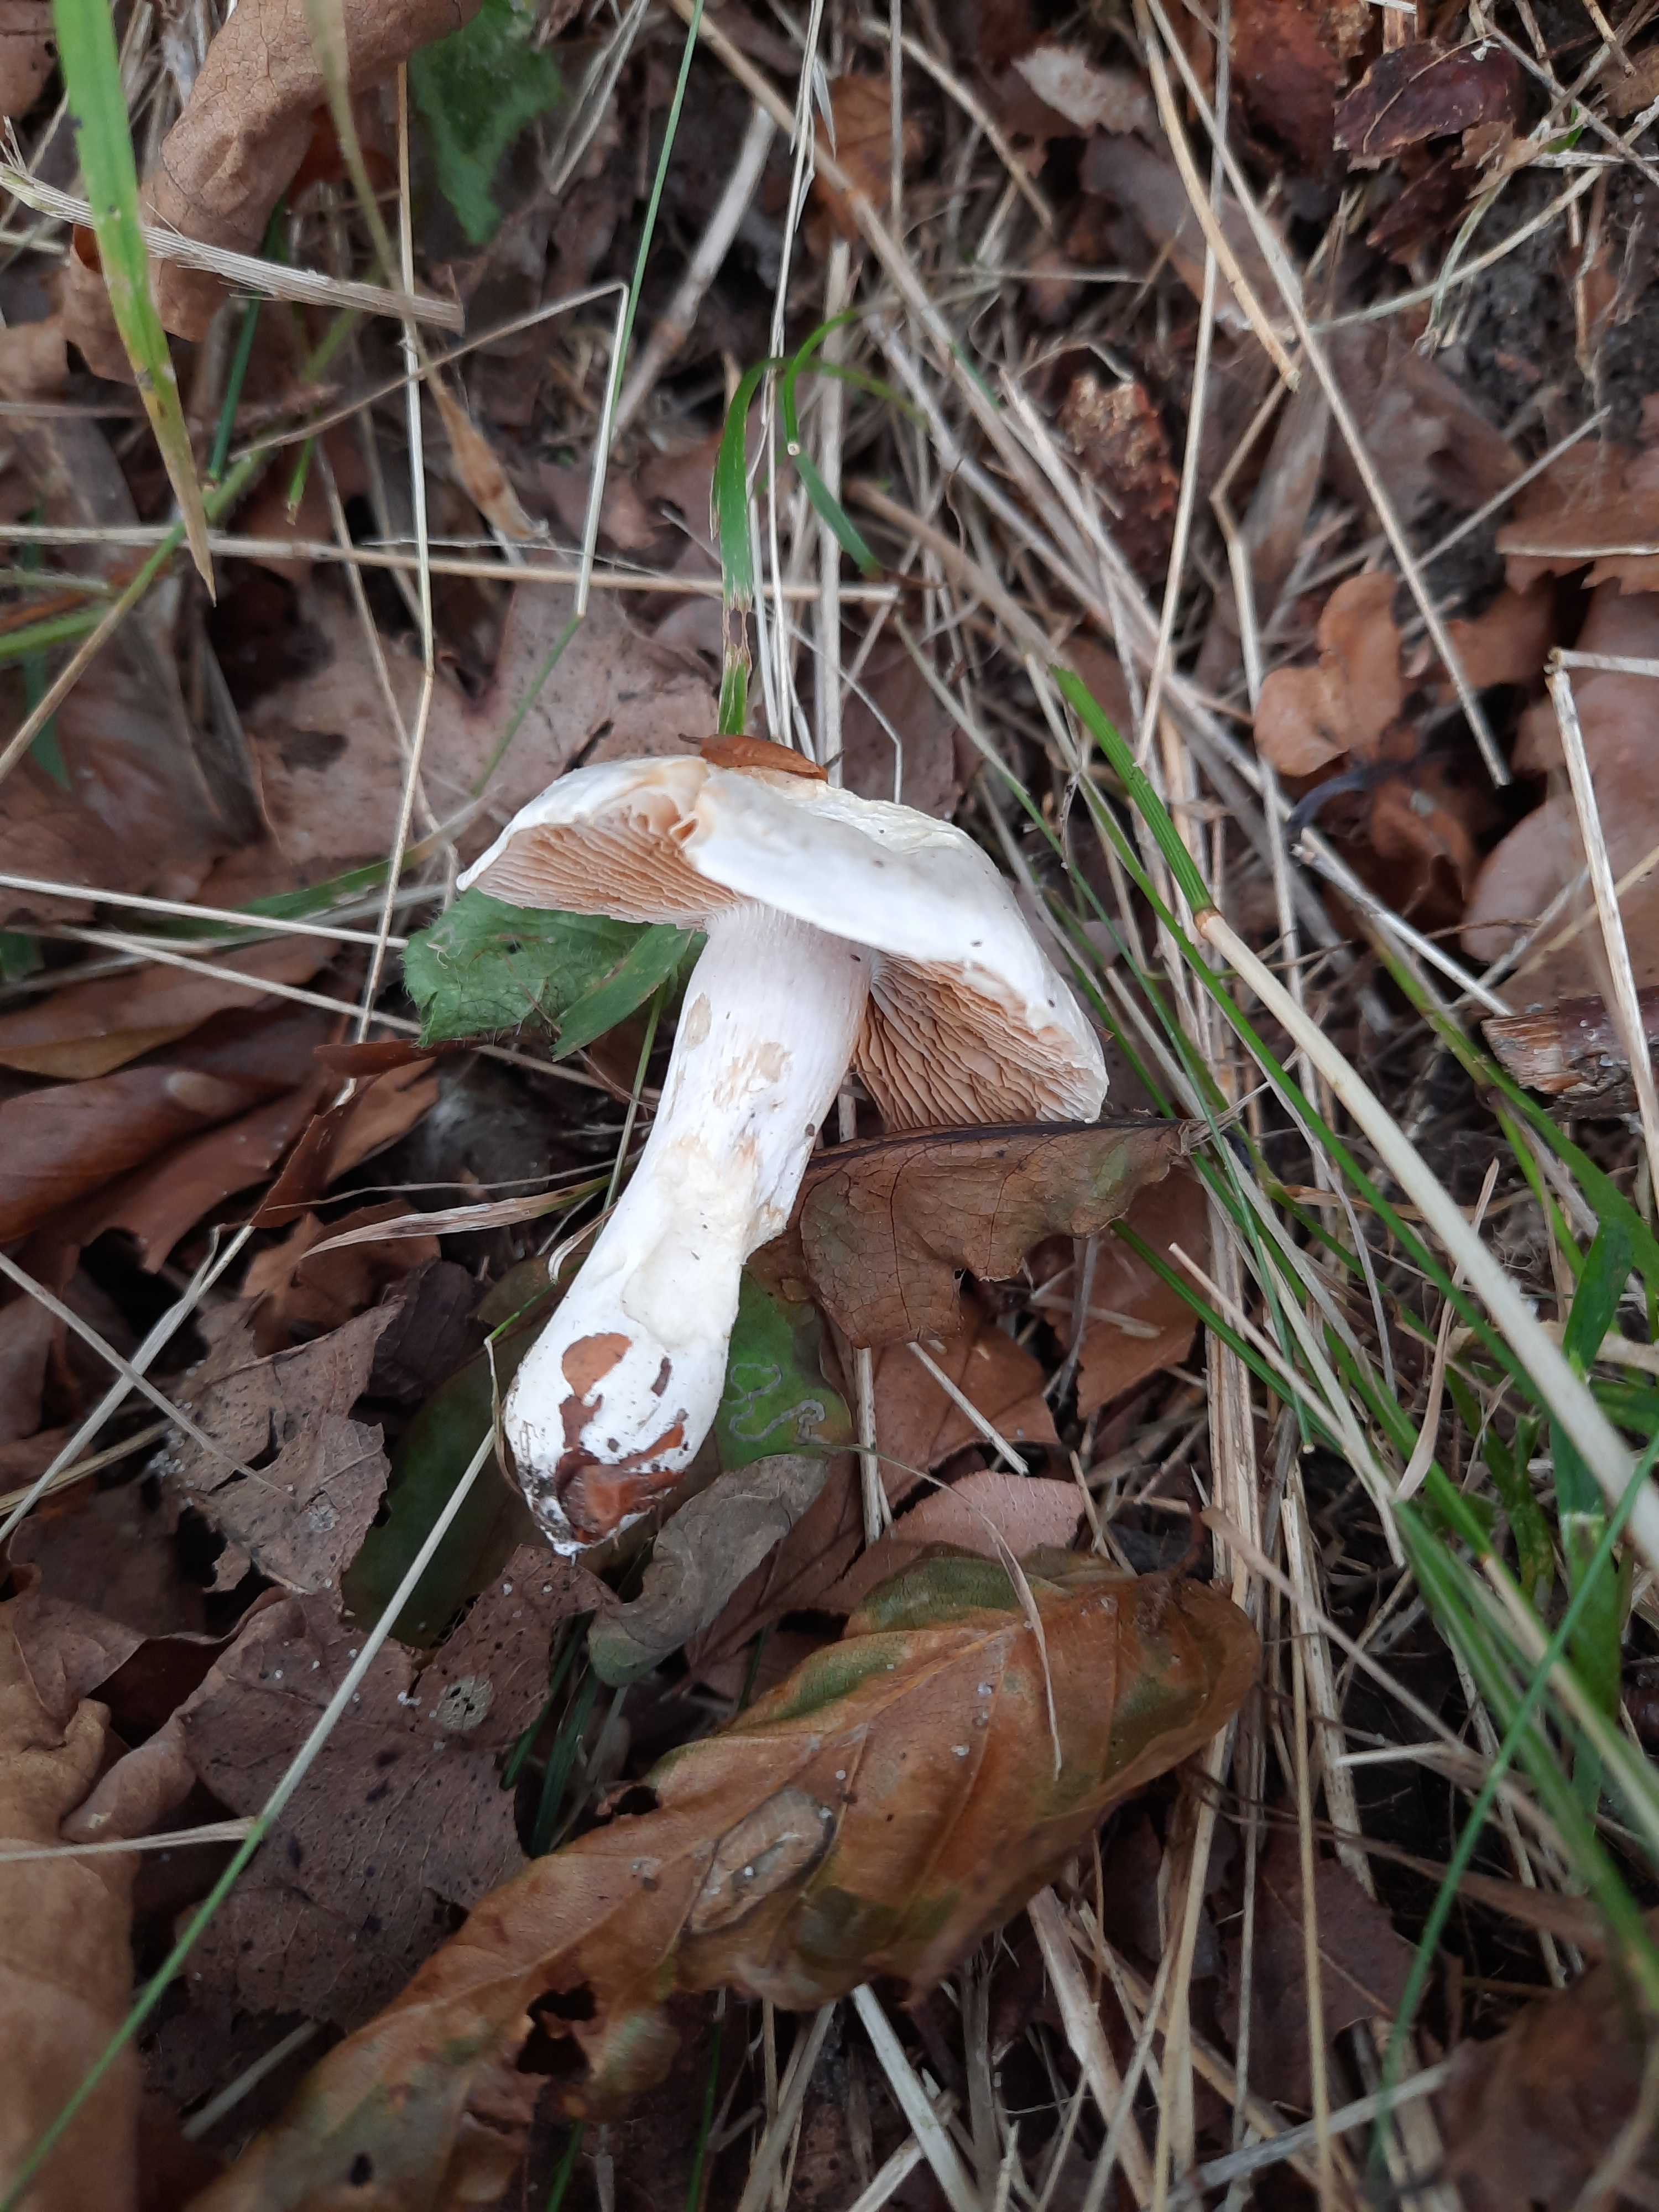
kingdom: Fungi
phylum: Basidiomycota
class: Agaricomycetes
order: Agaricales
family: Cortinariaceae
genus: Thaxterogaster
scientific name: Thaxterogaster barbatus
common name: elfenbens-slørhat
